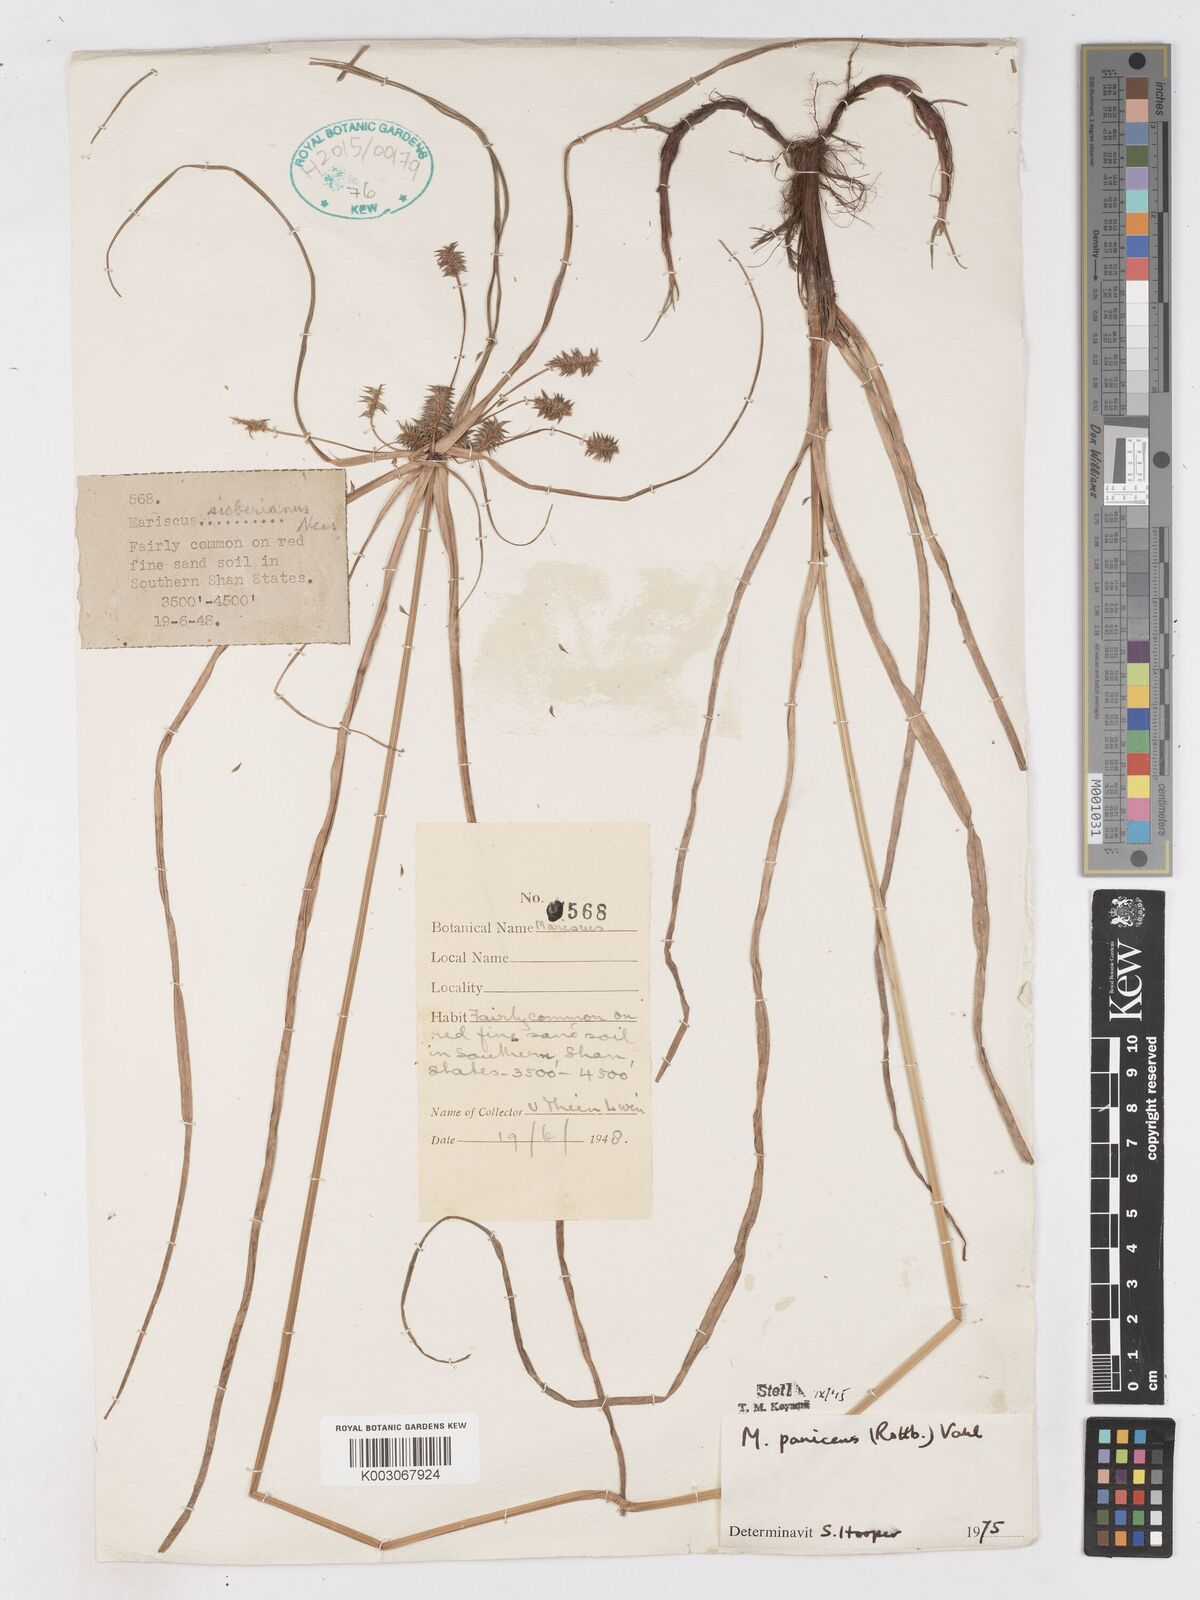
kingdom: Plantae
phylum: Tracheophyta
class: Liliopsida
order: Poales
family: Cyperaceae
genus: Cyperus
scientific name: Cyperus paniceus
